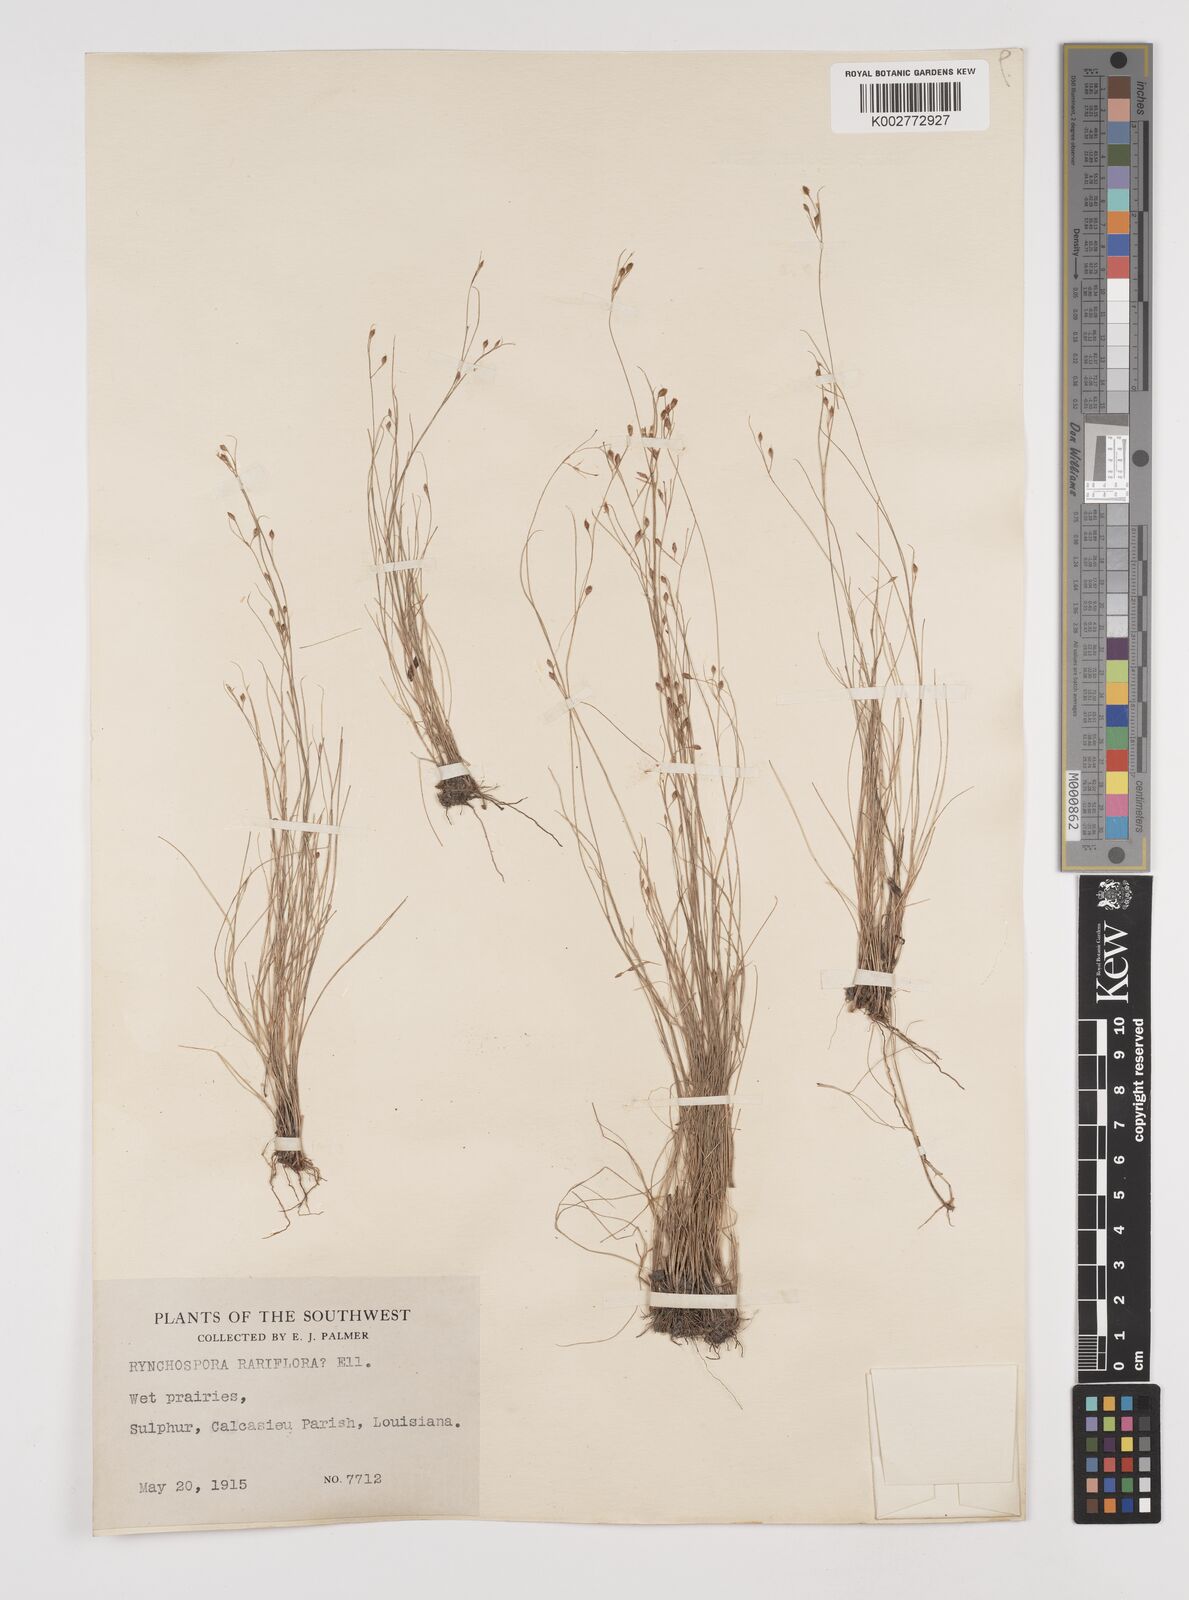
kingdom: Plantae
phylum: Tracheophyta
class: Liliopsida
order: Poales
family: Cyperaceae
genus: Rhynchospora
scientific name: Rhynchospora rariflora
